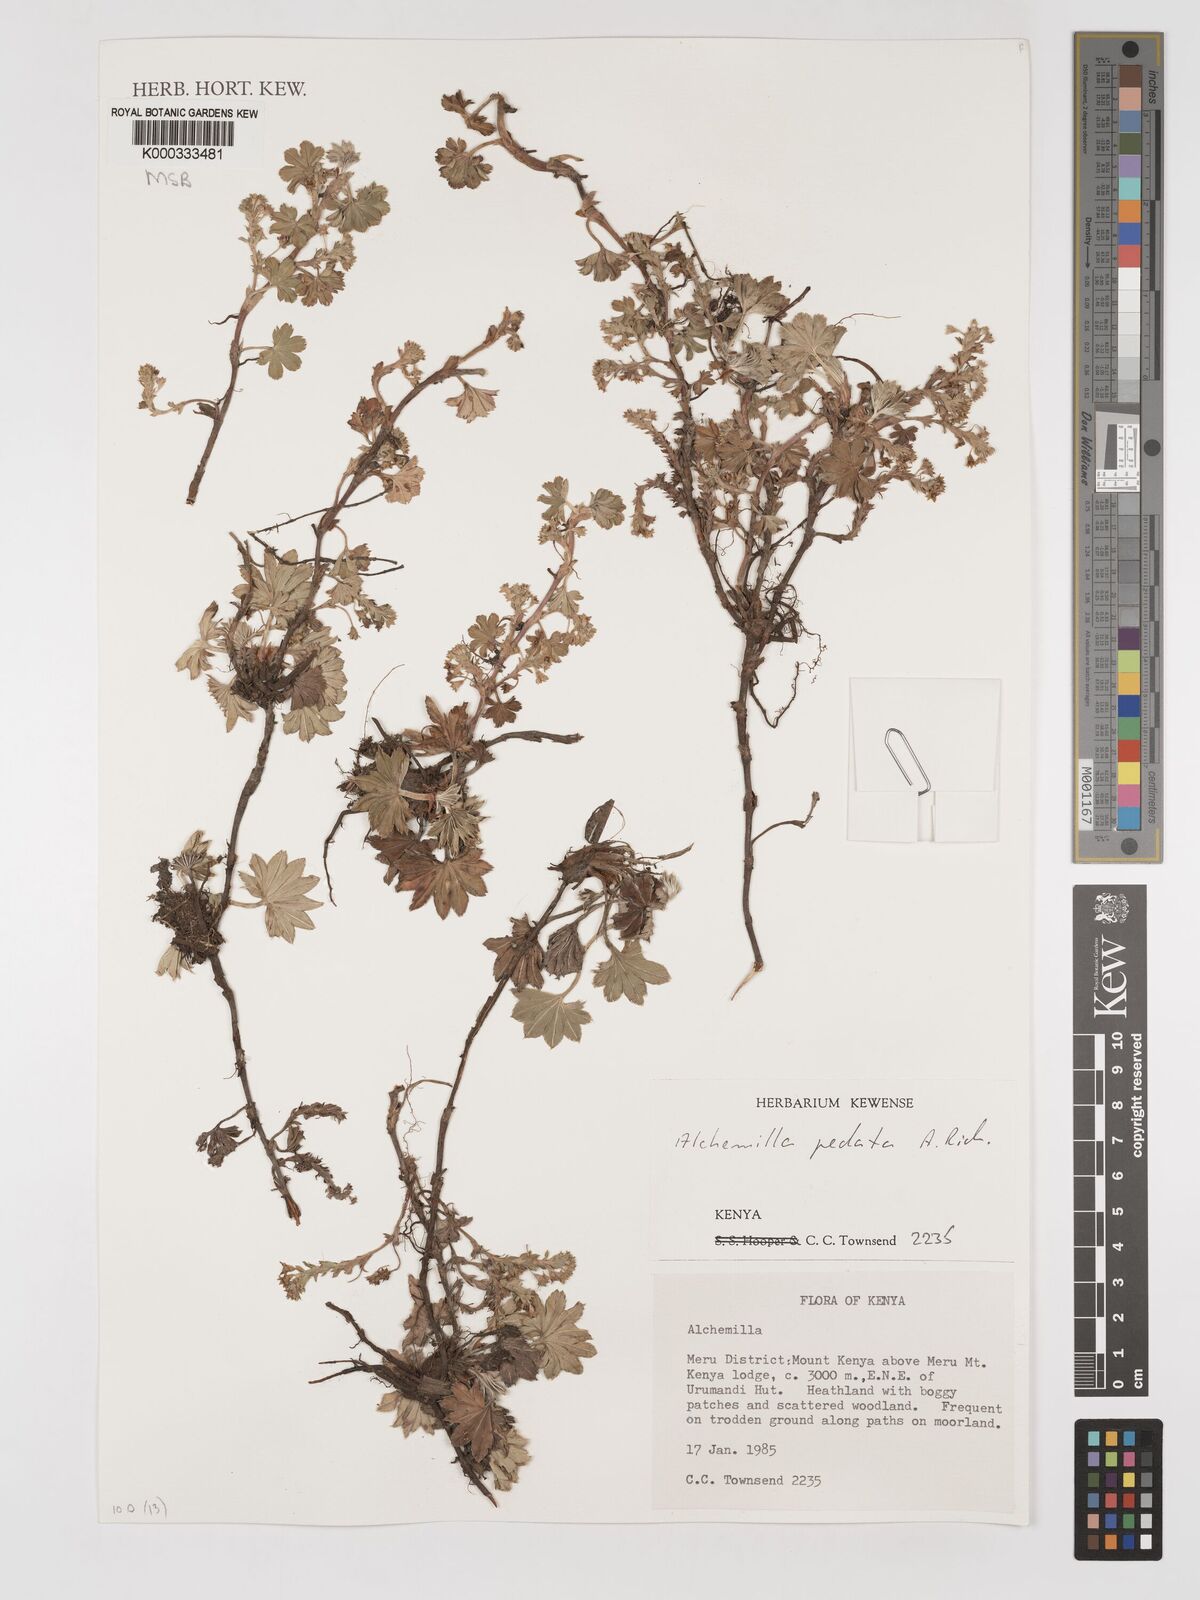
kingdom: Plantae
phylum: Tracheophyta
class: Magnoliopsida
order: Rosales
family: Rosaceae
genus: Alchemilla
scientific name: Alchemilla pedata
